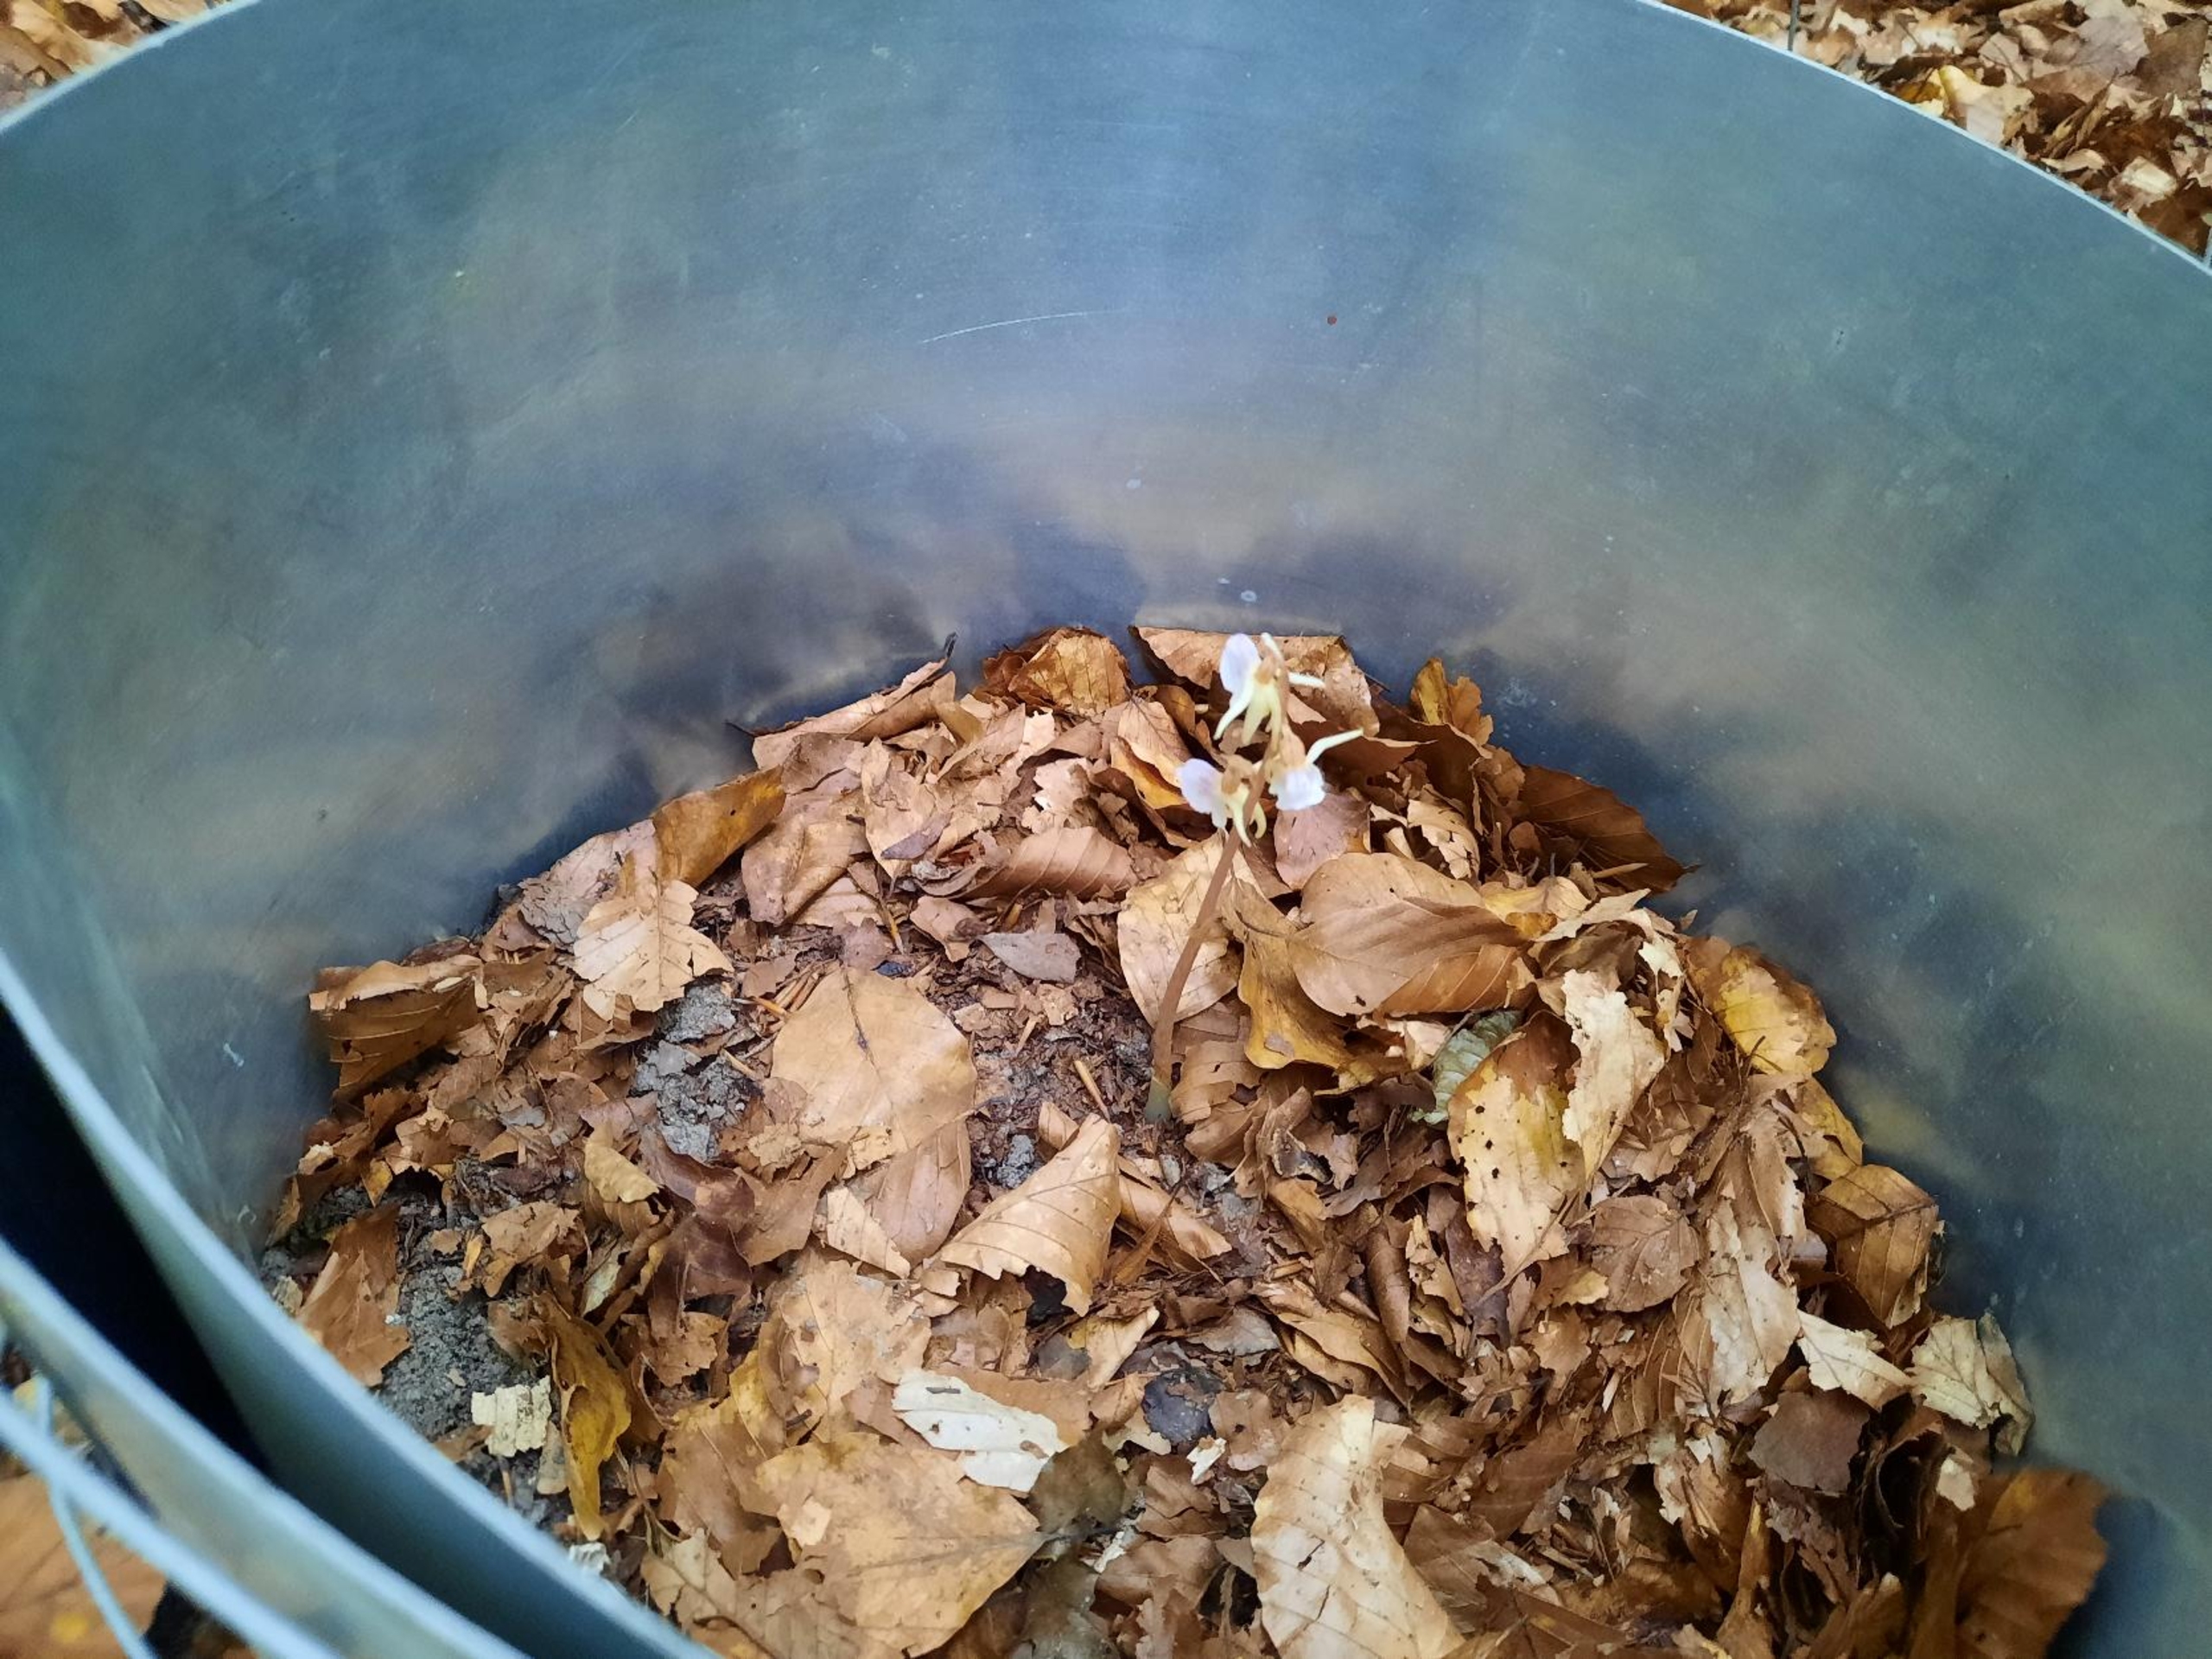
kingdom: Plantae
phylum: Tracheophyta
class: Liliopsida
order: Asparagales
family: Orchidaceae
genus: Epipogium
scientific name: Epipogium aphyllum
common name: Knælæbe
